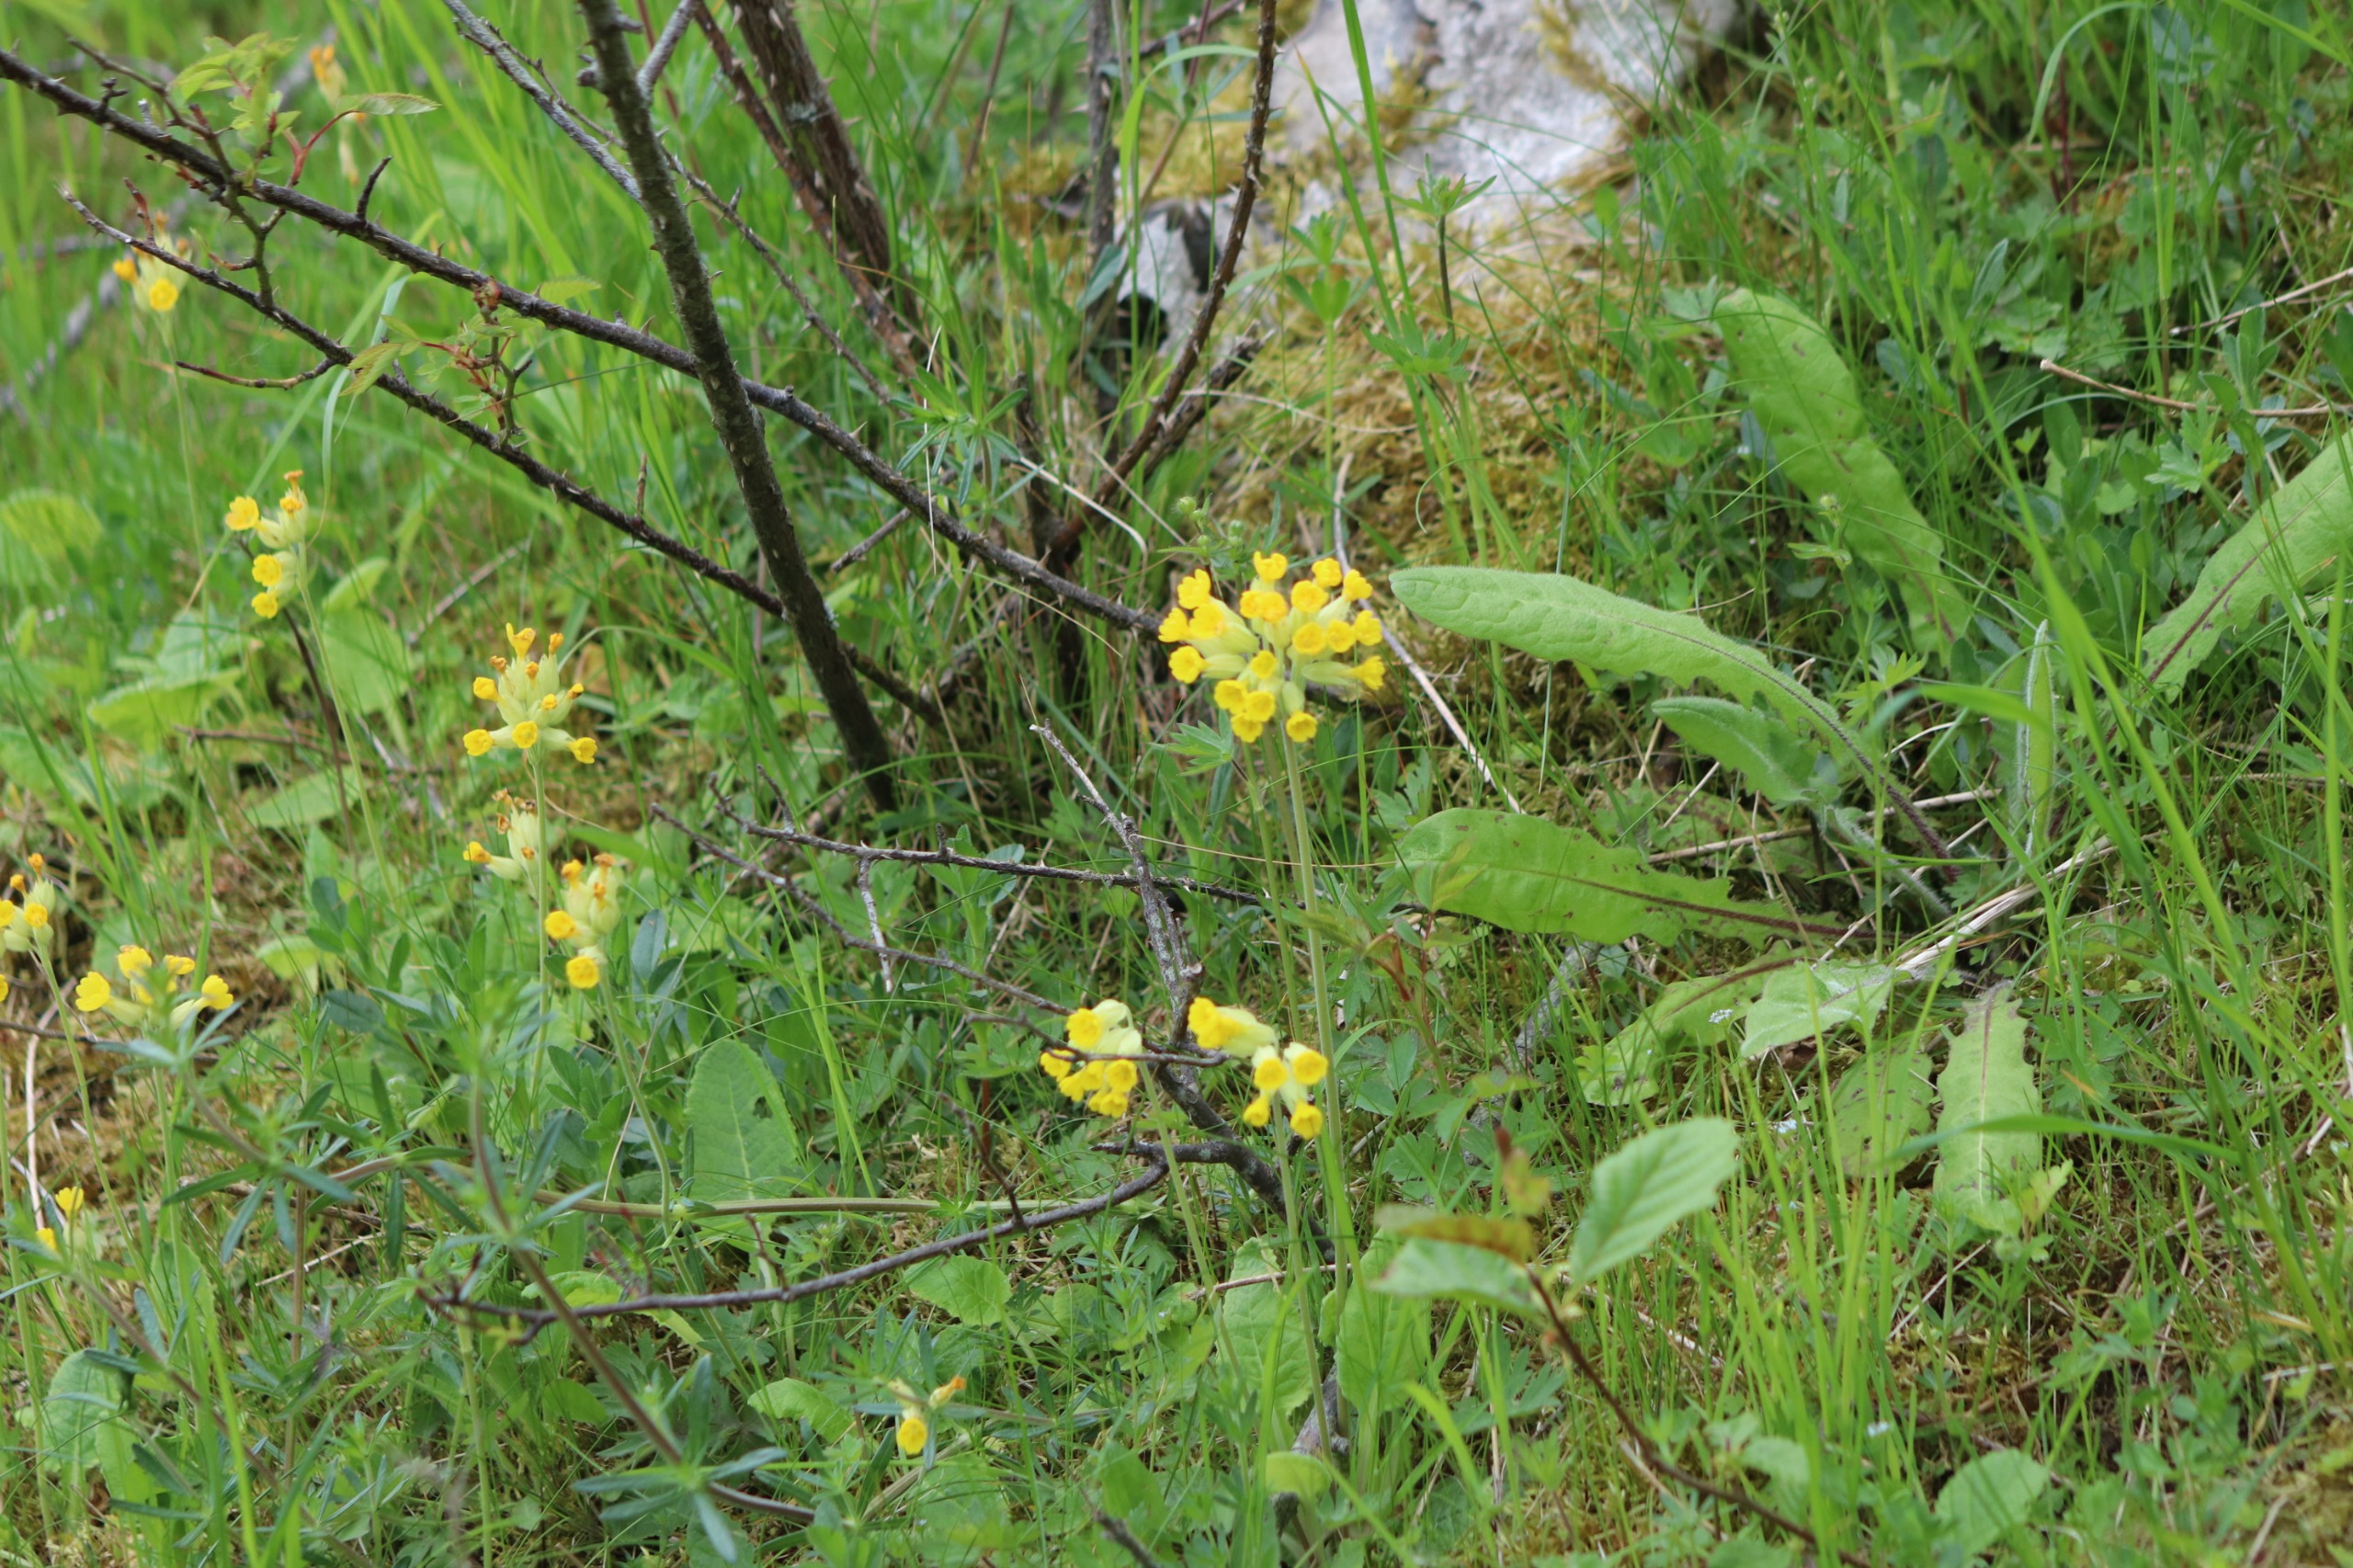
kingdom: Plantae
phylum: Tracheophyta
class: Magnoliopsida
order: Ericales
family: Primulaceae
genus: Primula
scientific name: Primula veris
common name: Hulkravet kodriver
